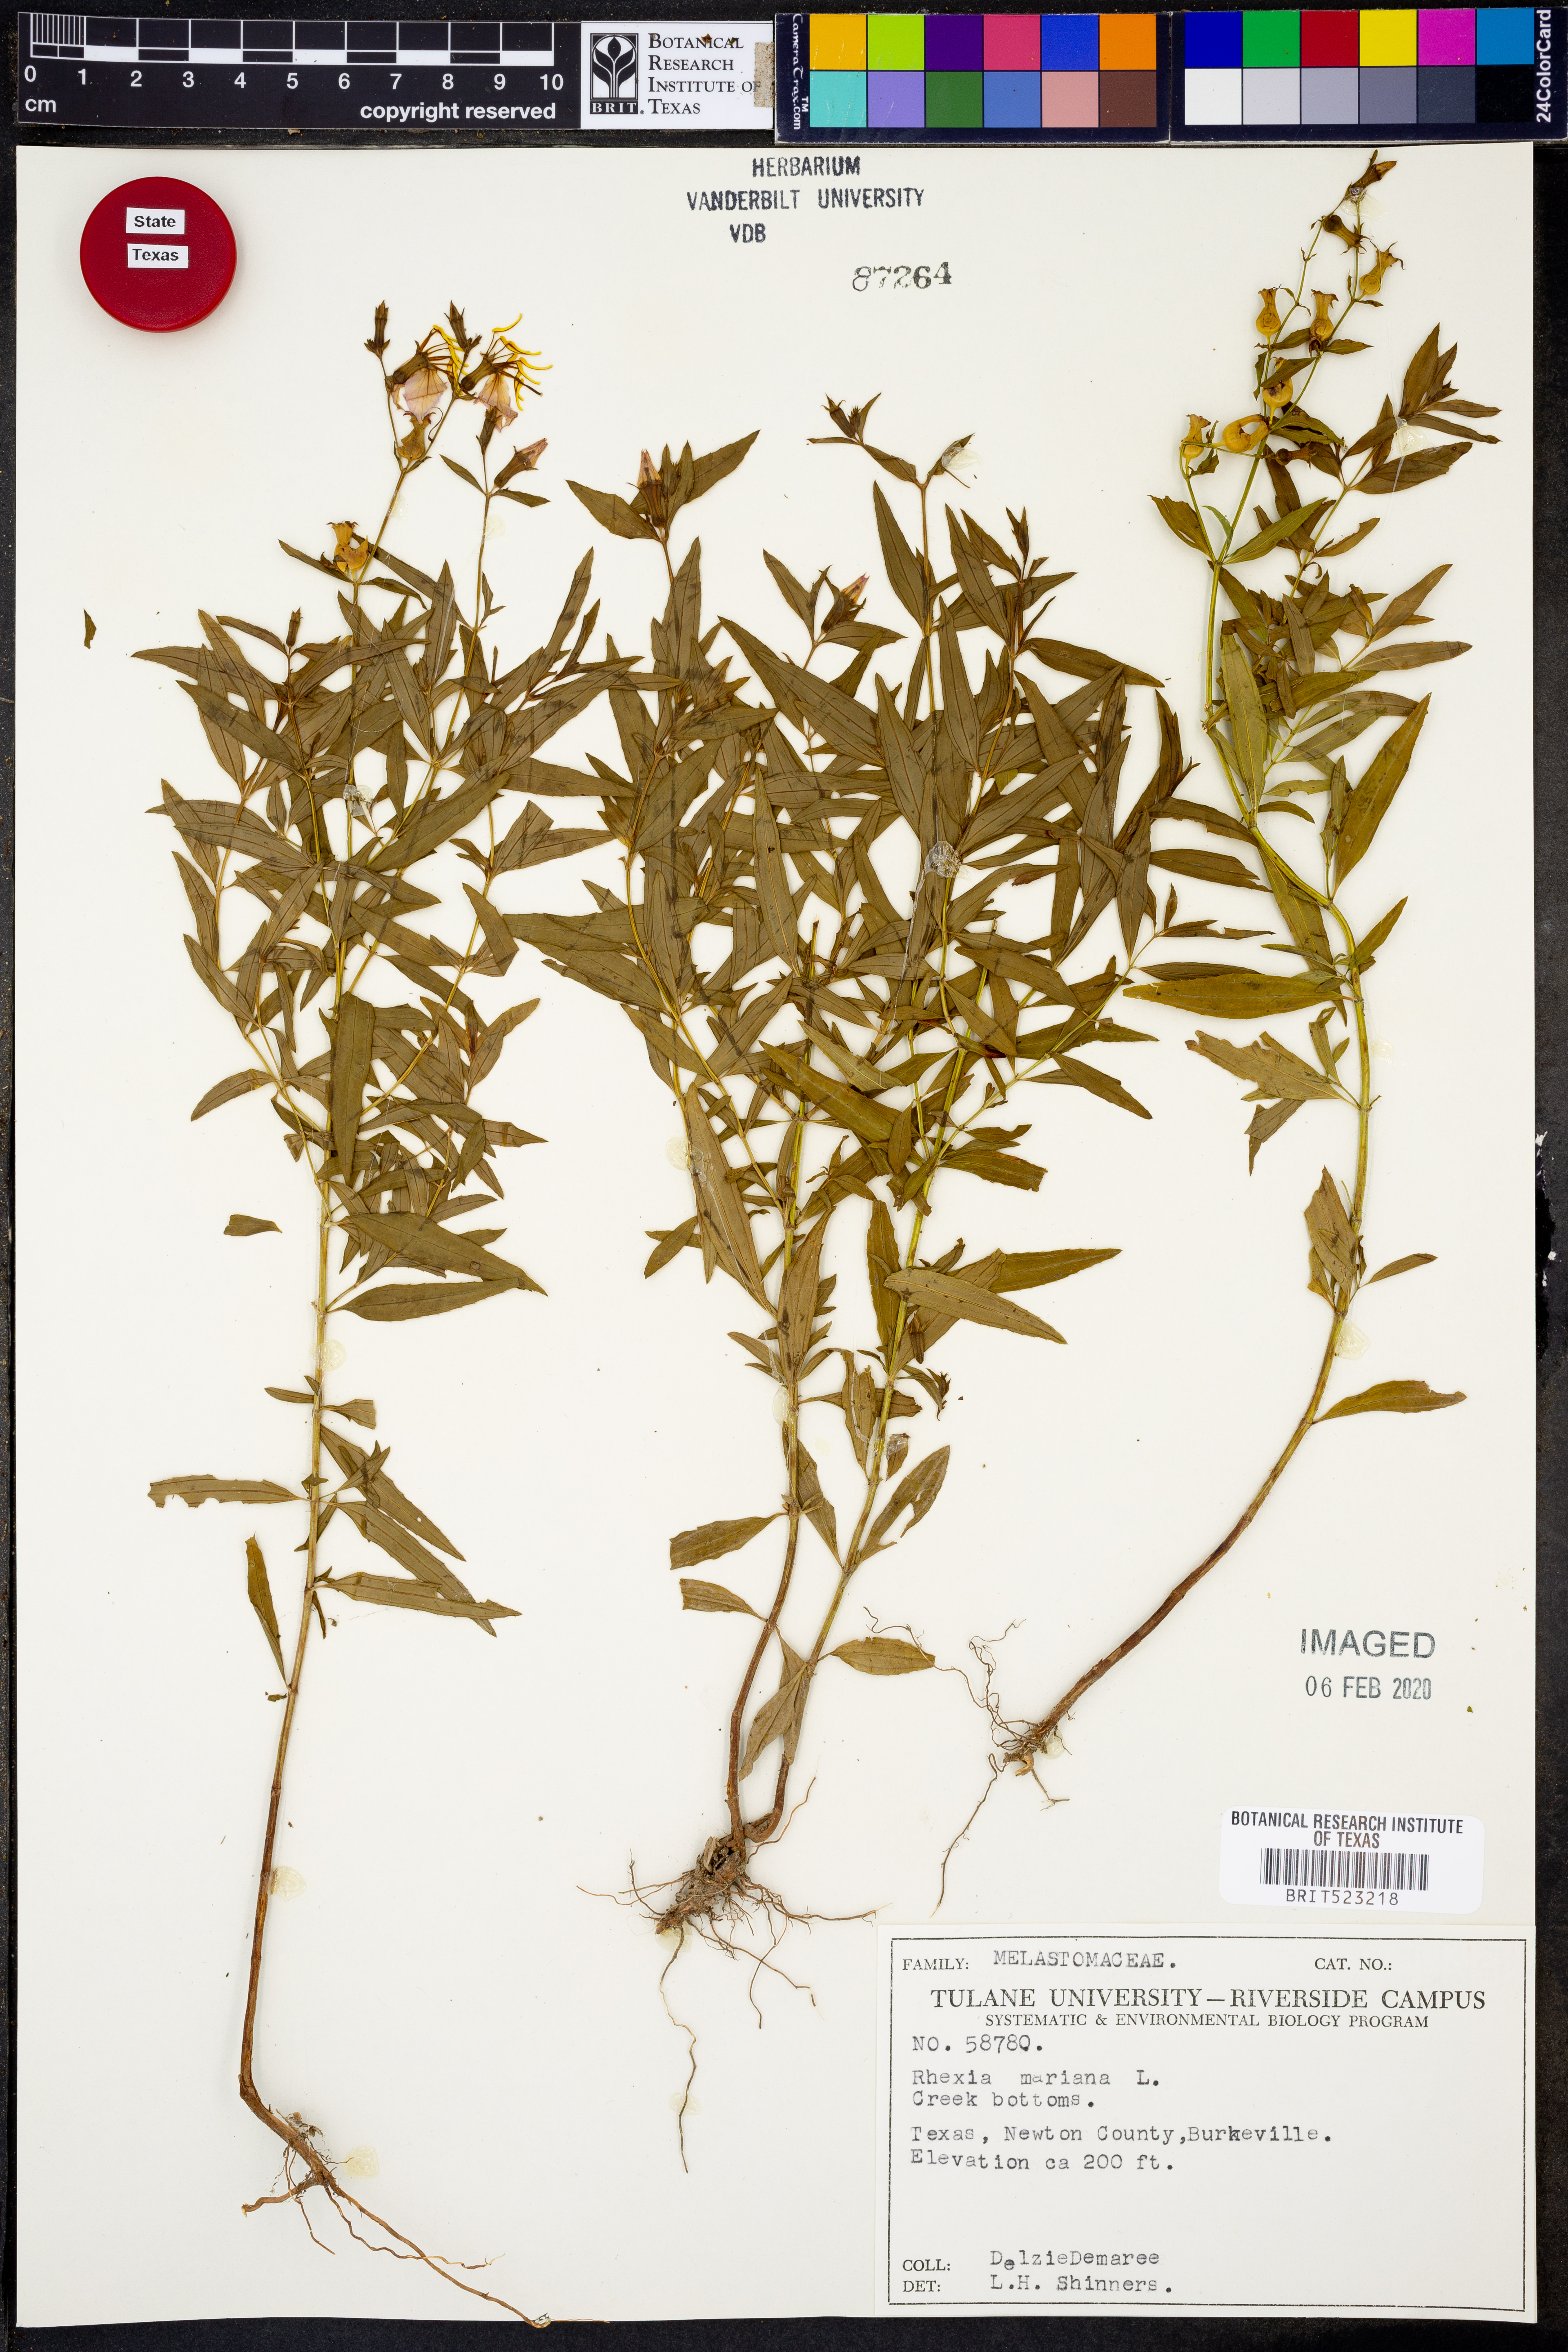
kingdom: Plantae
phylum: Tracheophyta
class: Magnoliopsida
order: Myrtales
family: Melastomataceae
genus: Rhexia
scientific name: Rhexia mariana
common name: Dull meadow-pitcher
